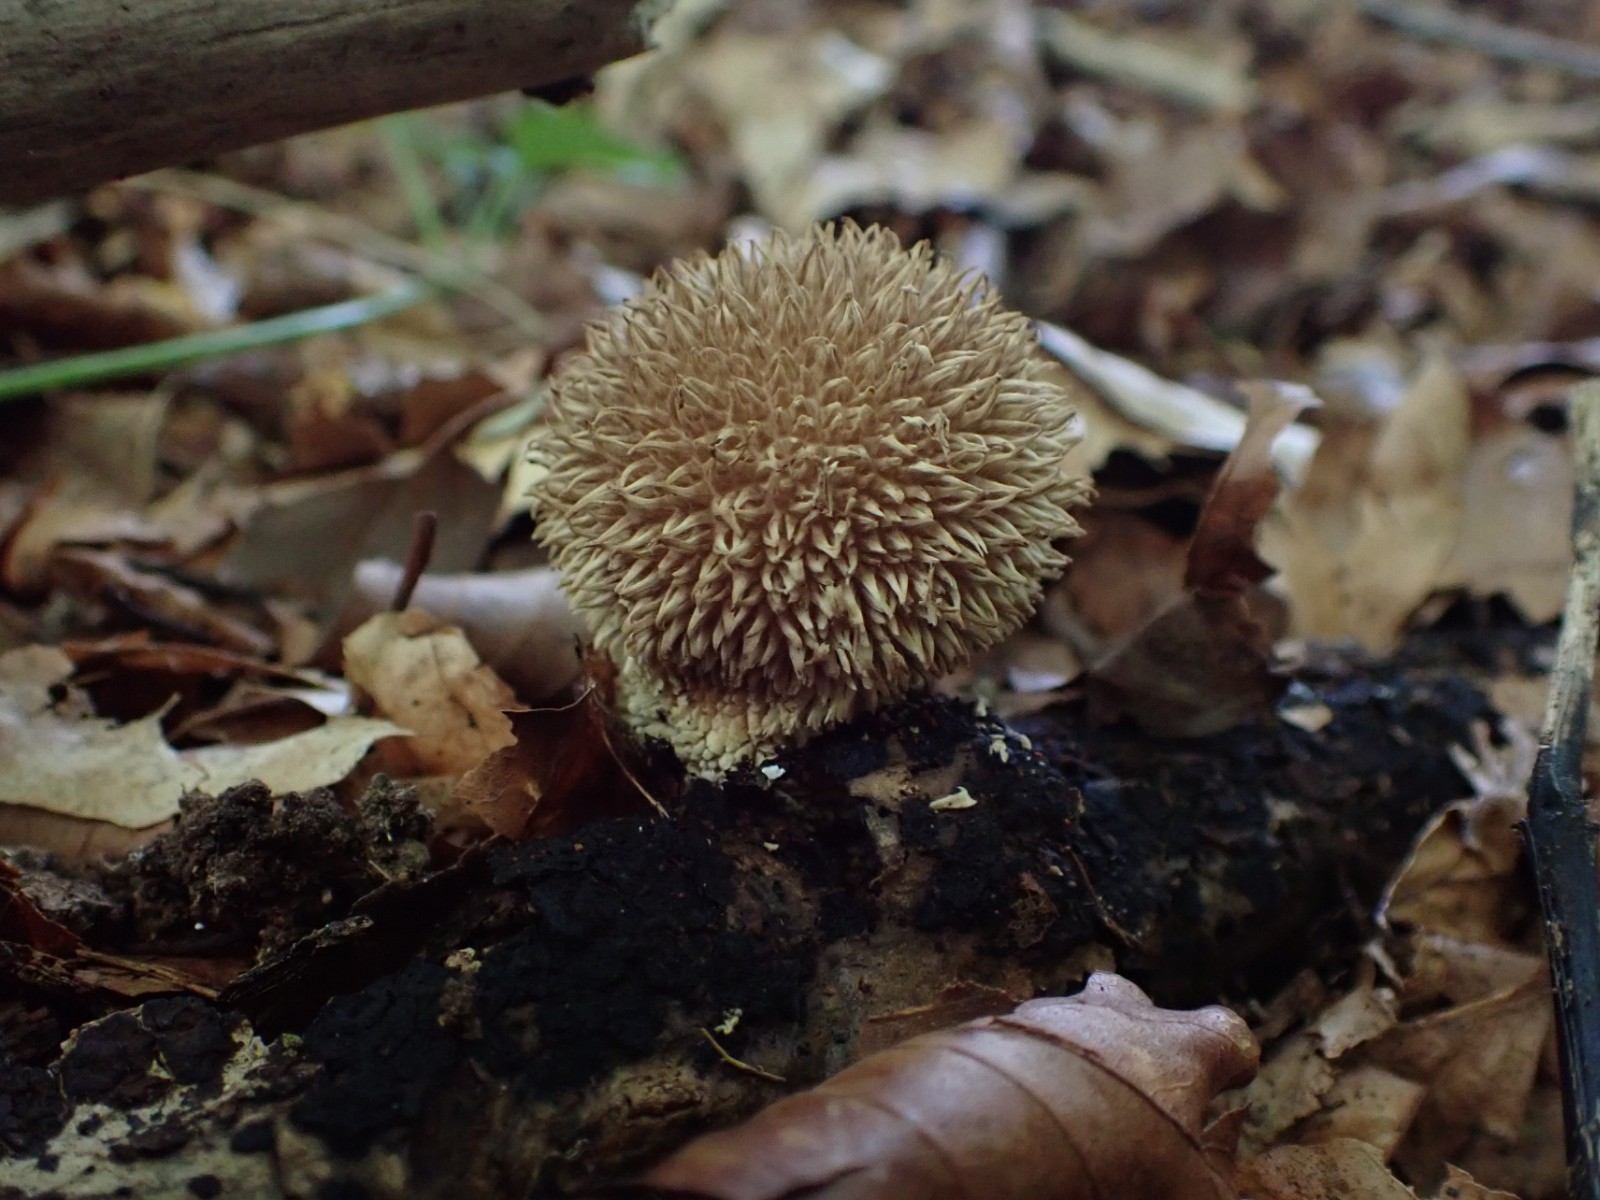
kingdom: Fungi
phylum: Basidiomycota
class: Agaricomycetes
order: Agaricales
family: Lycoperdaceae
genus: Lycoperdon
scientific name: Lycoperdon echinatum
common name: pindsvine-støvbold
